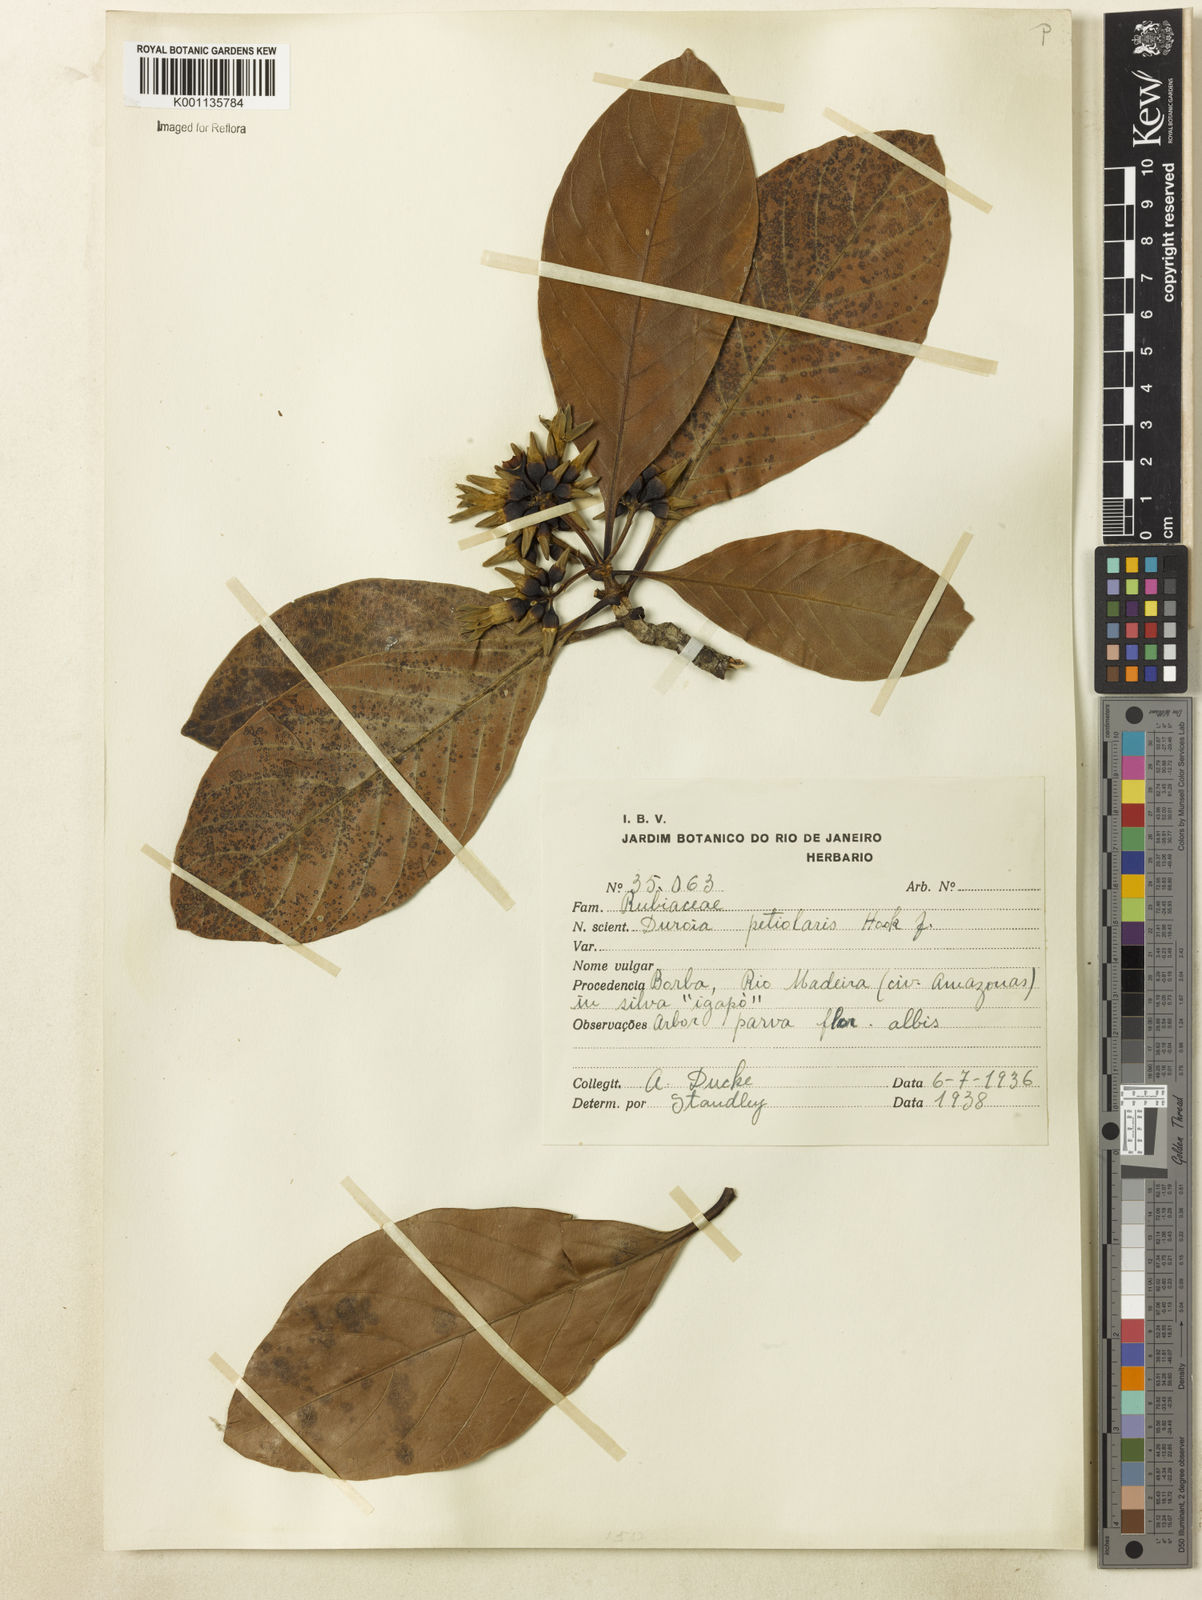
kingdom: Plantae
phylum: Tracheophyta
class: Magnoliopsida
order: Gentianales
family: Rubiaceae
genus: Duroia
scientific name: Duroia petiolaris
